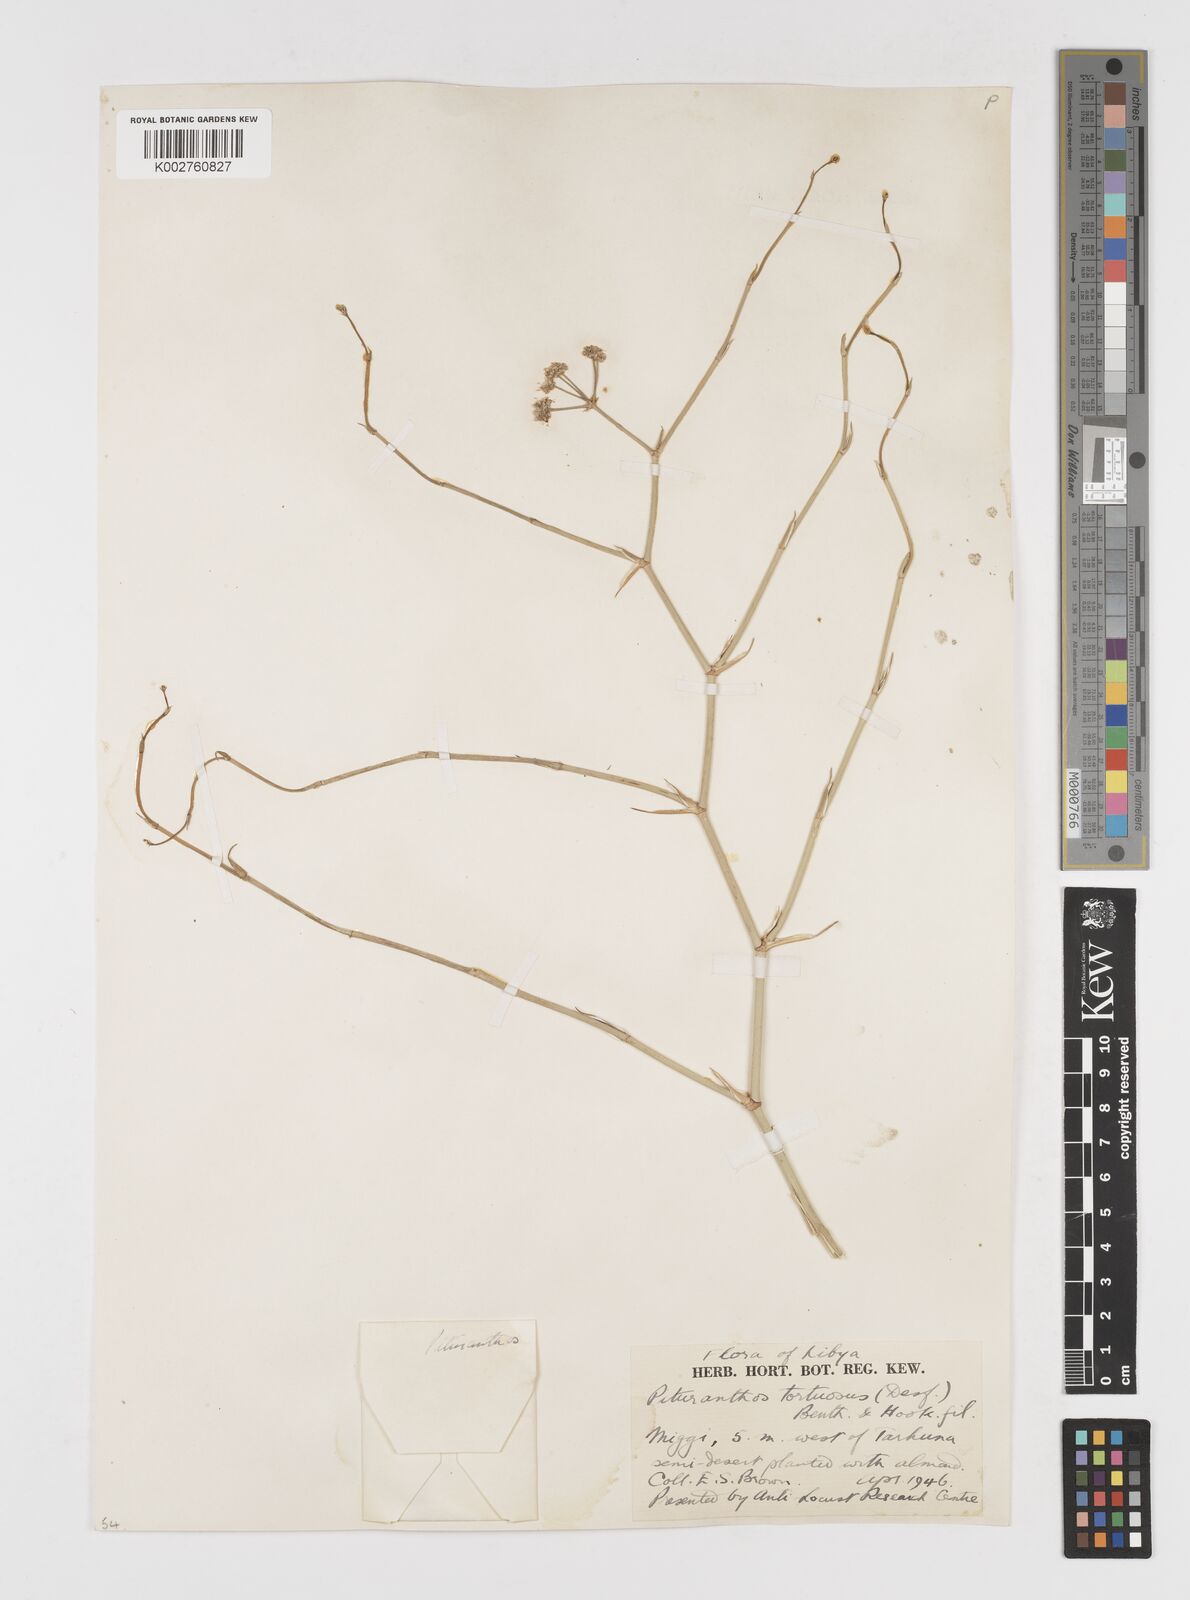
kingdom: Plantae
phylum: Tracheophyta
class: Magnoliopsida
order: Apiales
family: Apiaceae
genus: Deverra
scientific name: Deverra tortuosa
